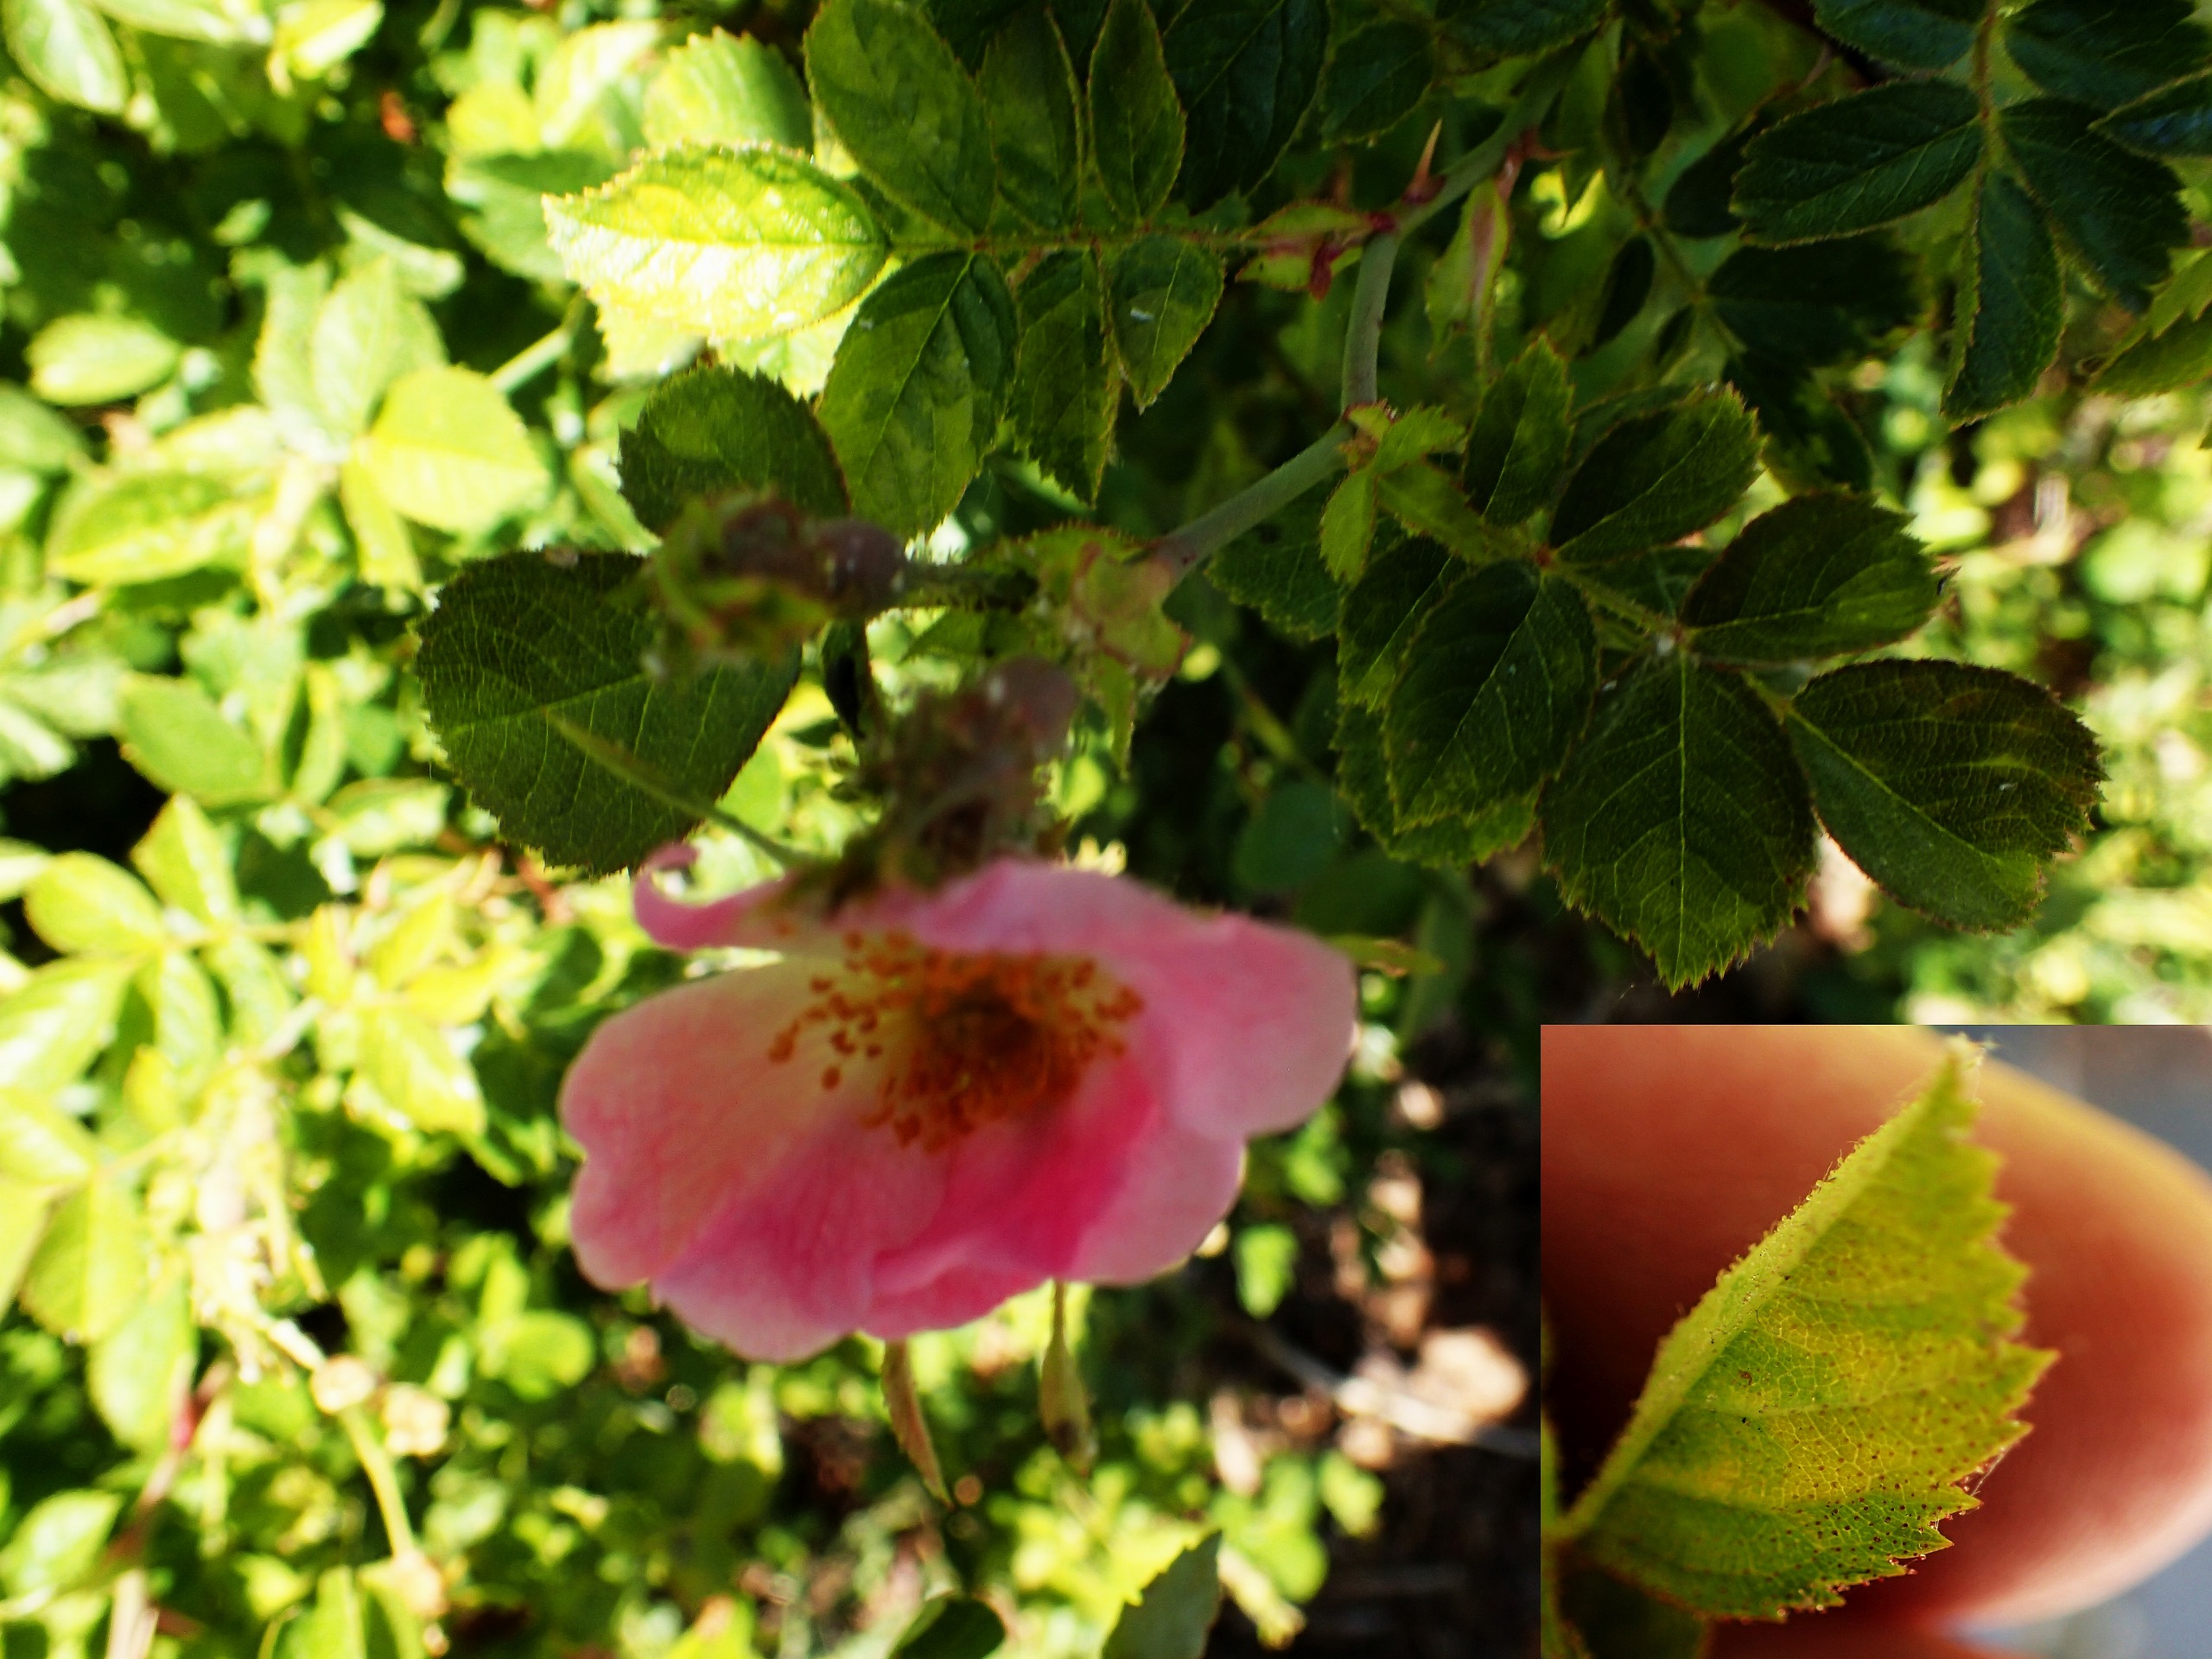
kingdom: Plantae
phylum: Tracheophyta
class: Magnoliopsida
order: Rosales
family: Rosaceae
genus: Rosa
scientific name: Rosa rubiginosa
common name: Æble-rose
